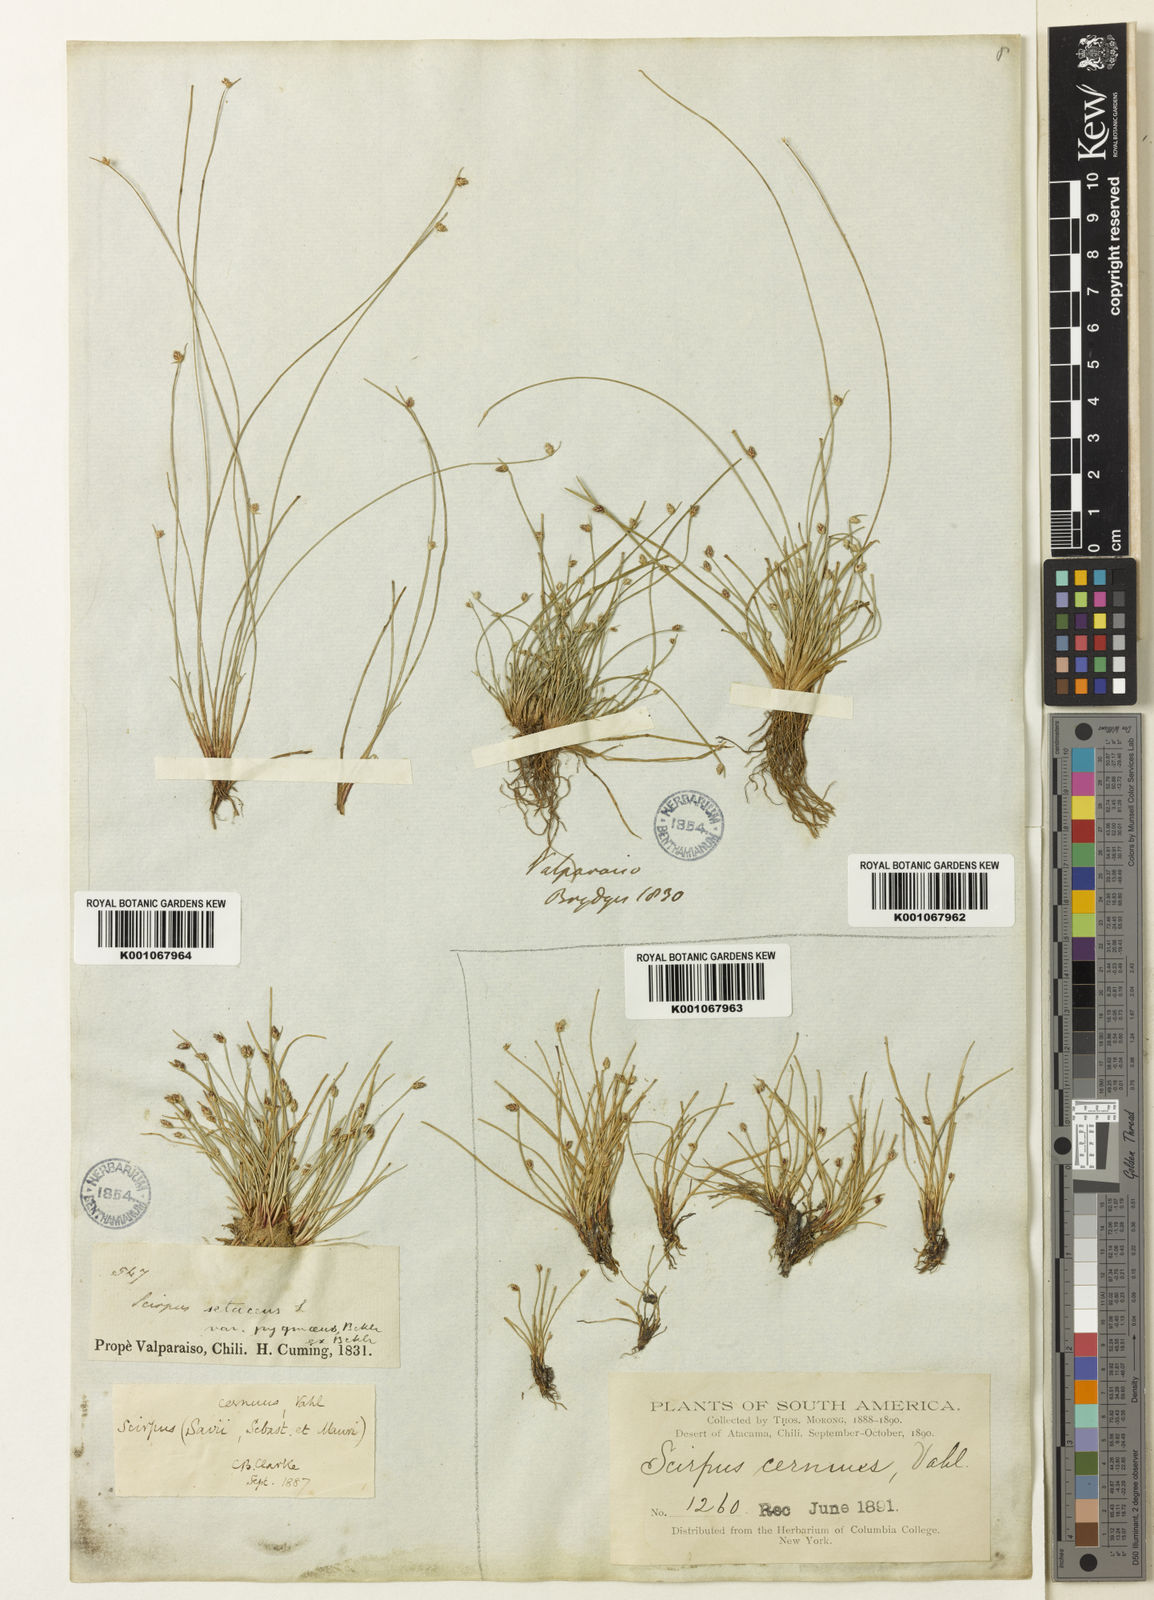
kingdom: Plantae
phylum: Tracheophyta
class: Liliopsida
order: Poales
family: Cyperaceae
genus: Isolepis
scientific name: Isolepis cernua
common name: Slender club-rush
